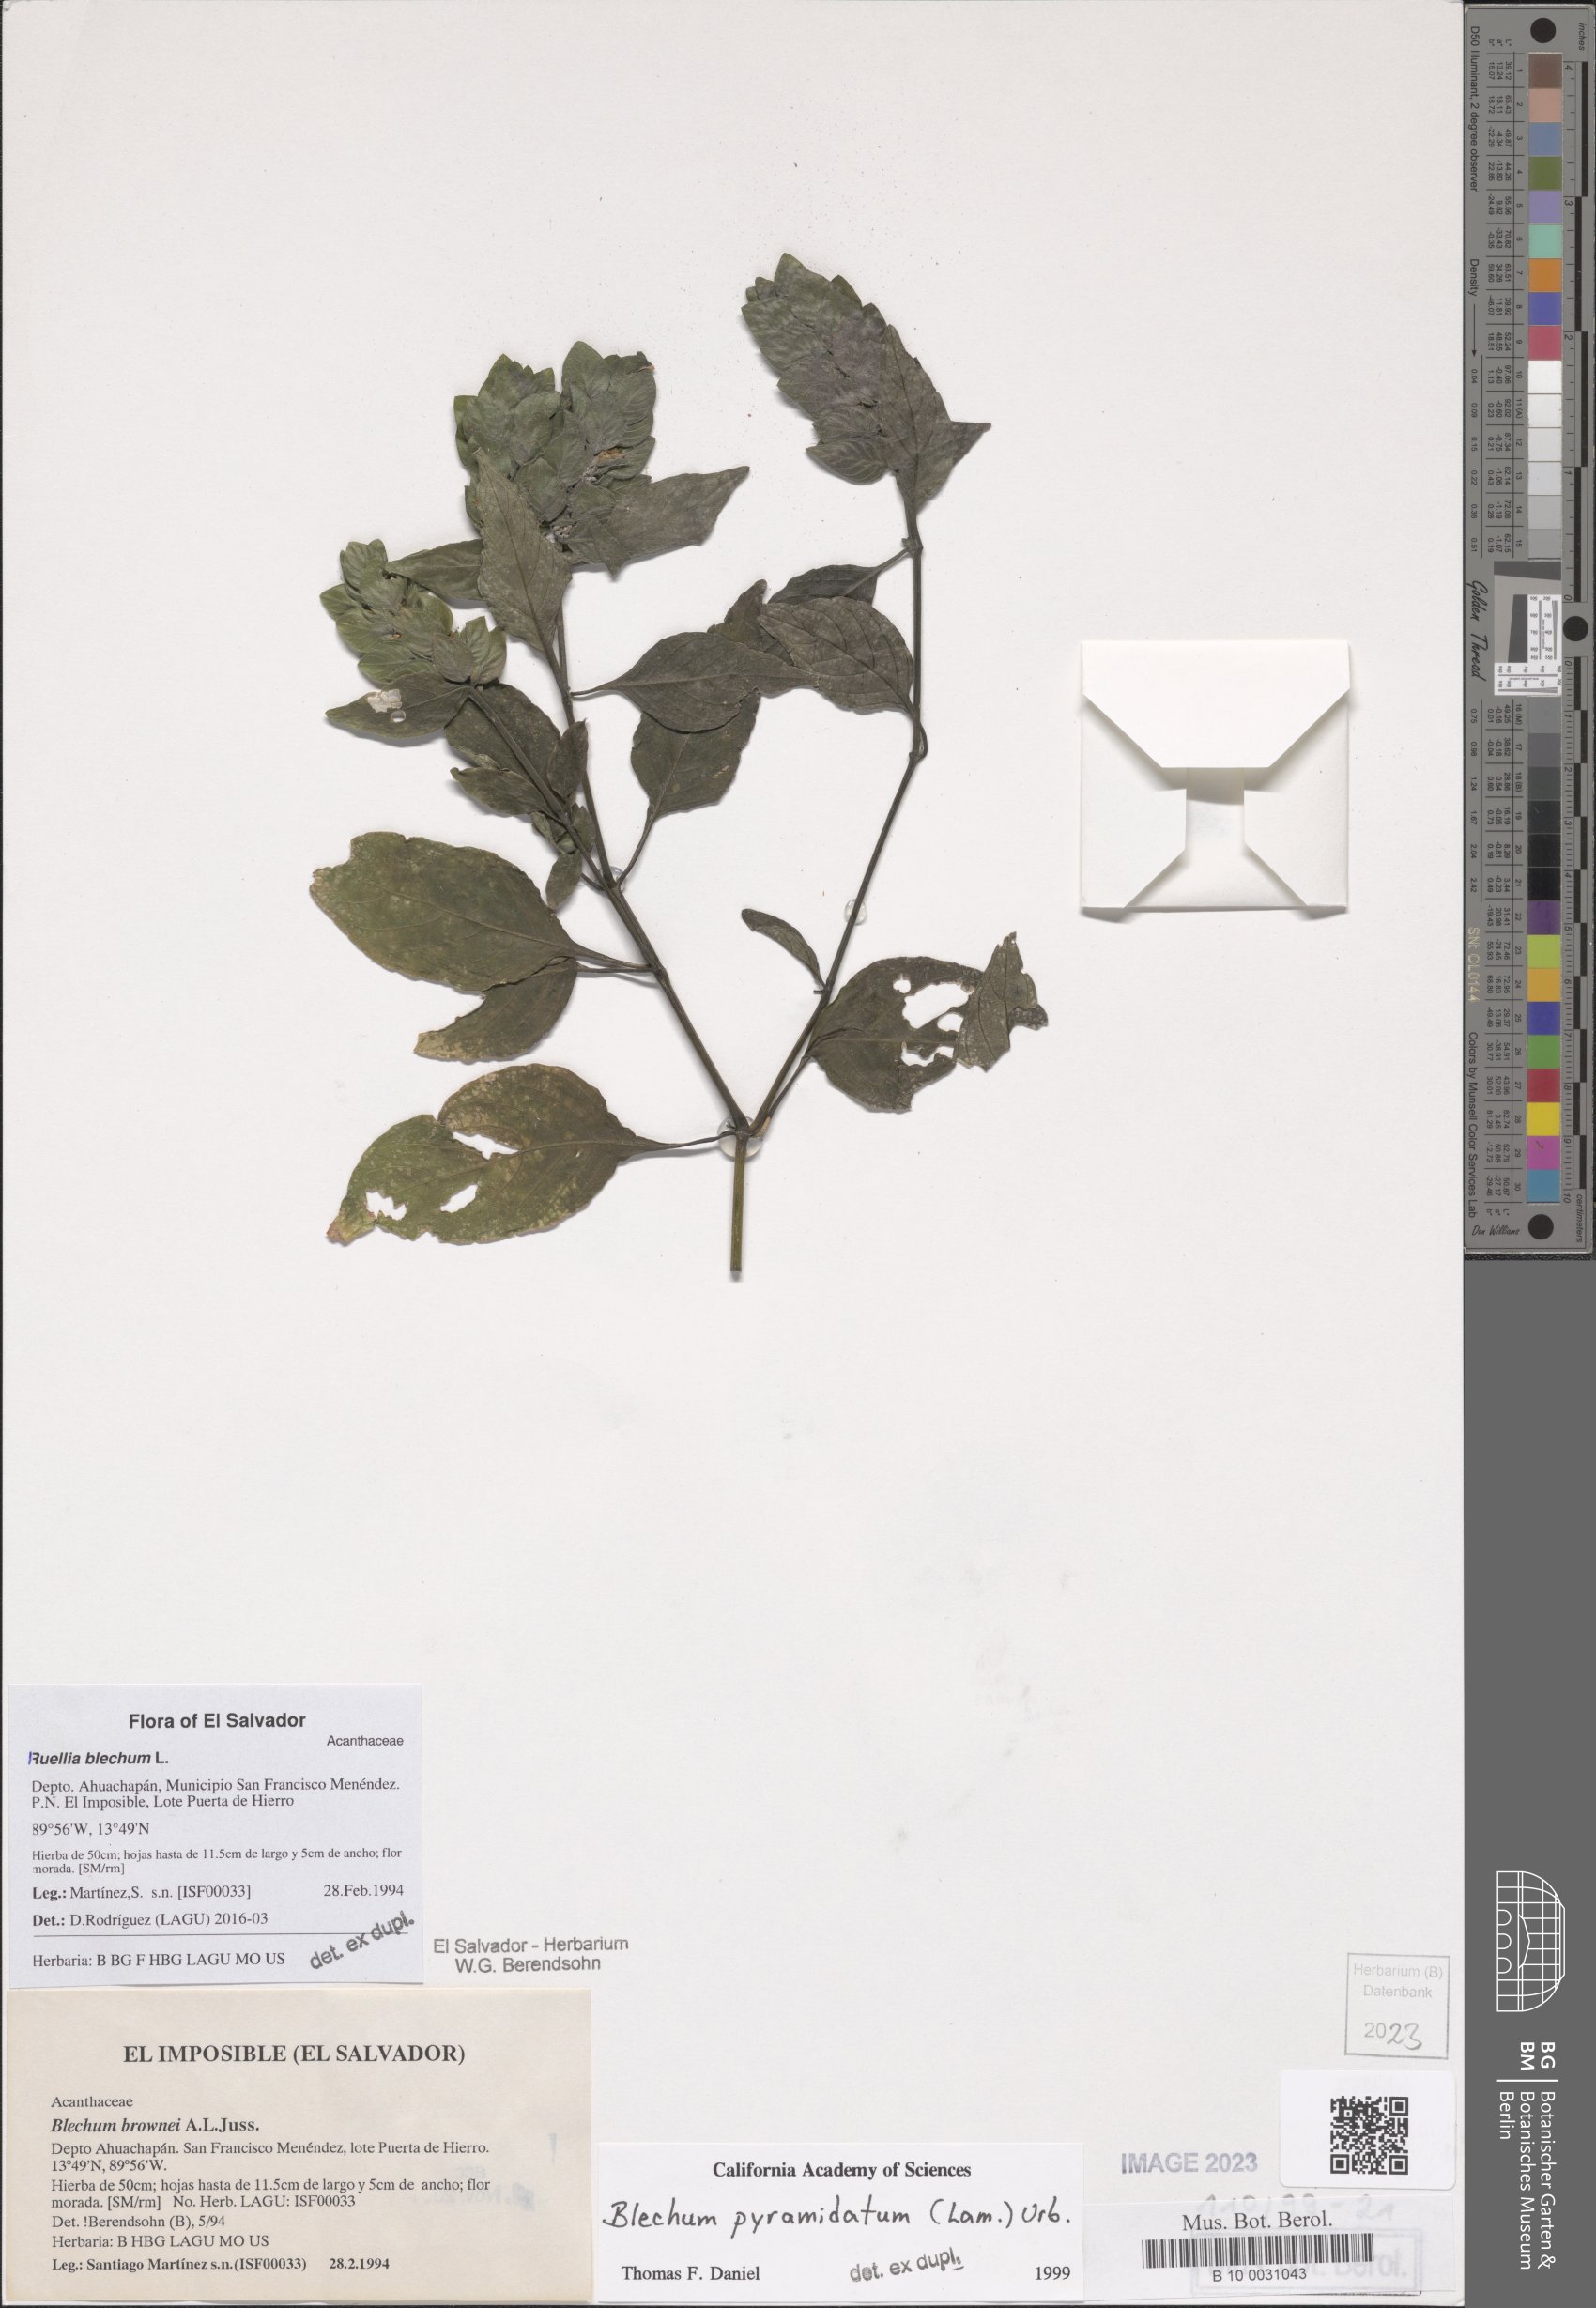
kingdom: Plantae
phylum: Tracheophyta
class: Magnoliopsida
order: Lamiales
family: Acanthaceae
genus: Ruellia
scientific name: Ruellia blechum
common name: Browne's blechum
